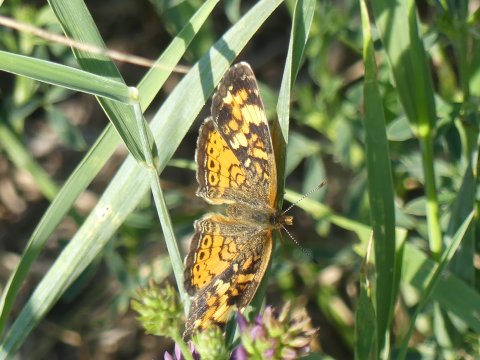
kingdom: Animalia
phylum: Arthropoda
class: Insecta
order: Lepidoptera
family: Nymphalidae
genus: Phyciodes
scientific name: Phyciodes
